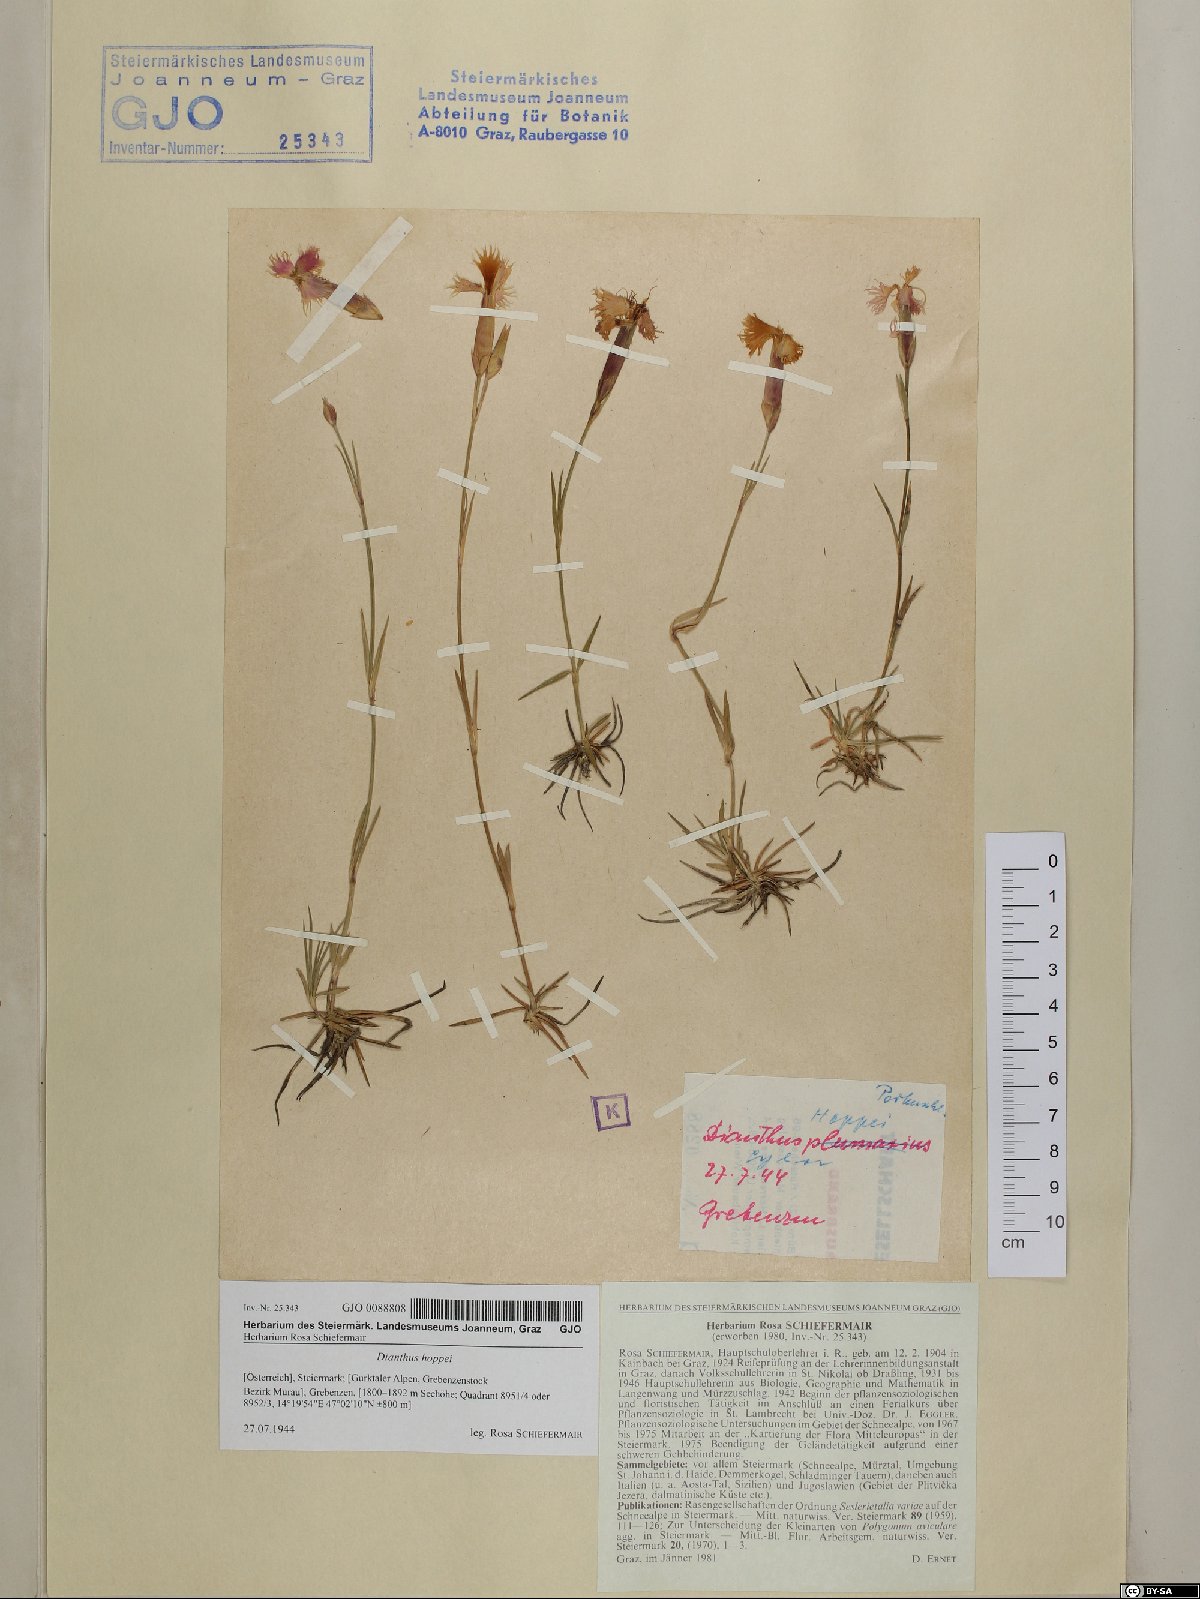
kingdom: Plantae
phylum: Tracheophyta
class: Magnoliopsida
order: Caryophyllales
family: Caryophyllaceae
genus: Dianthus
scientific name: Dianthus plumarius
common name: Pink
